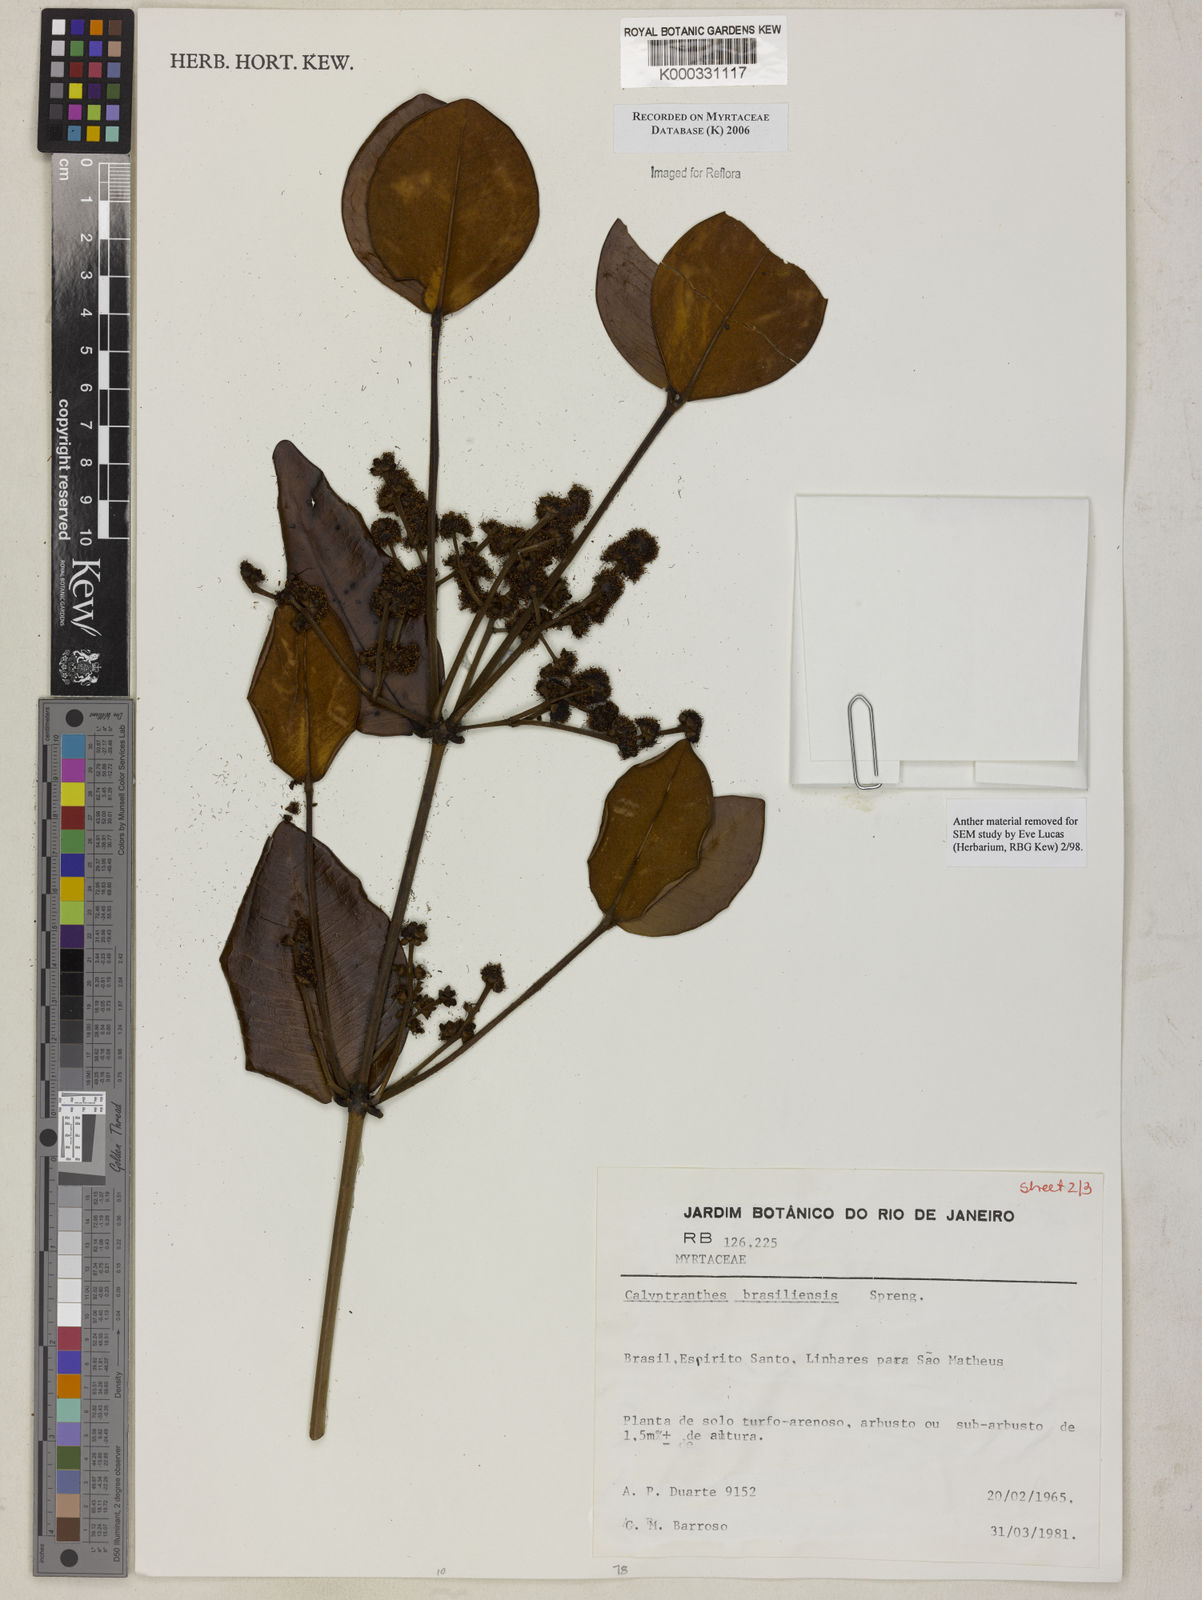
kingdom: Plantae
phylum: Tracheophyta
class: Magnoliopsida
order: Myrtales
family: Myrtaceae
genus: Myrcia
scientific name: Myrcia neobrasiliensis
